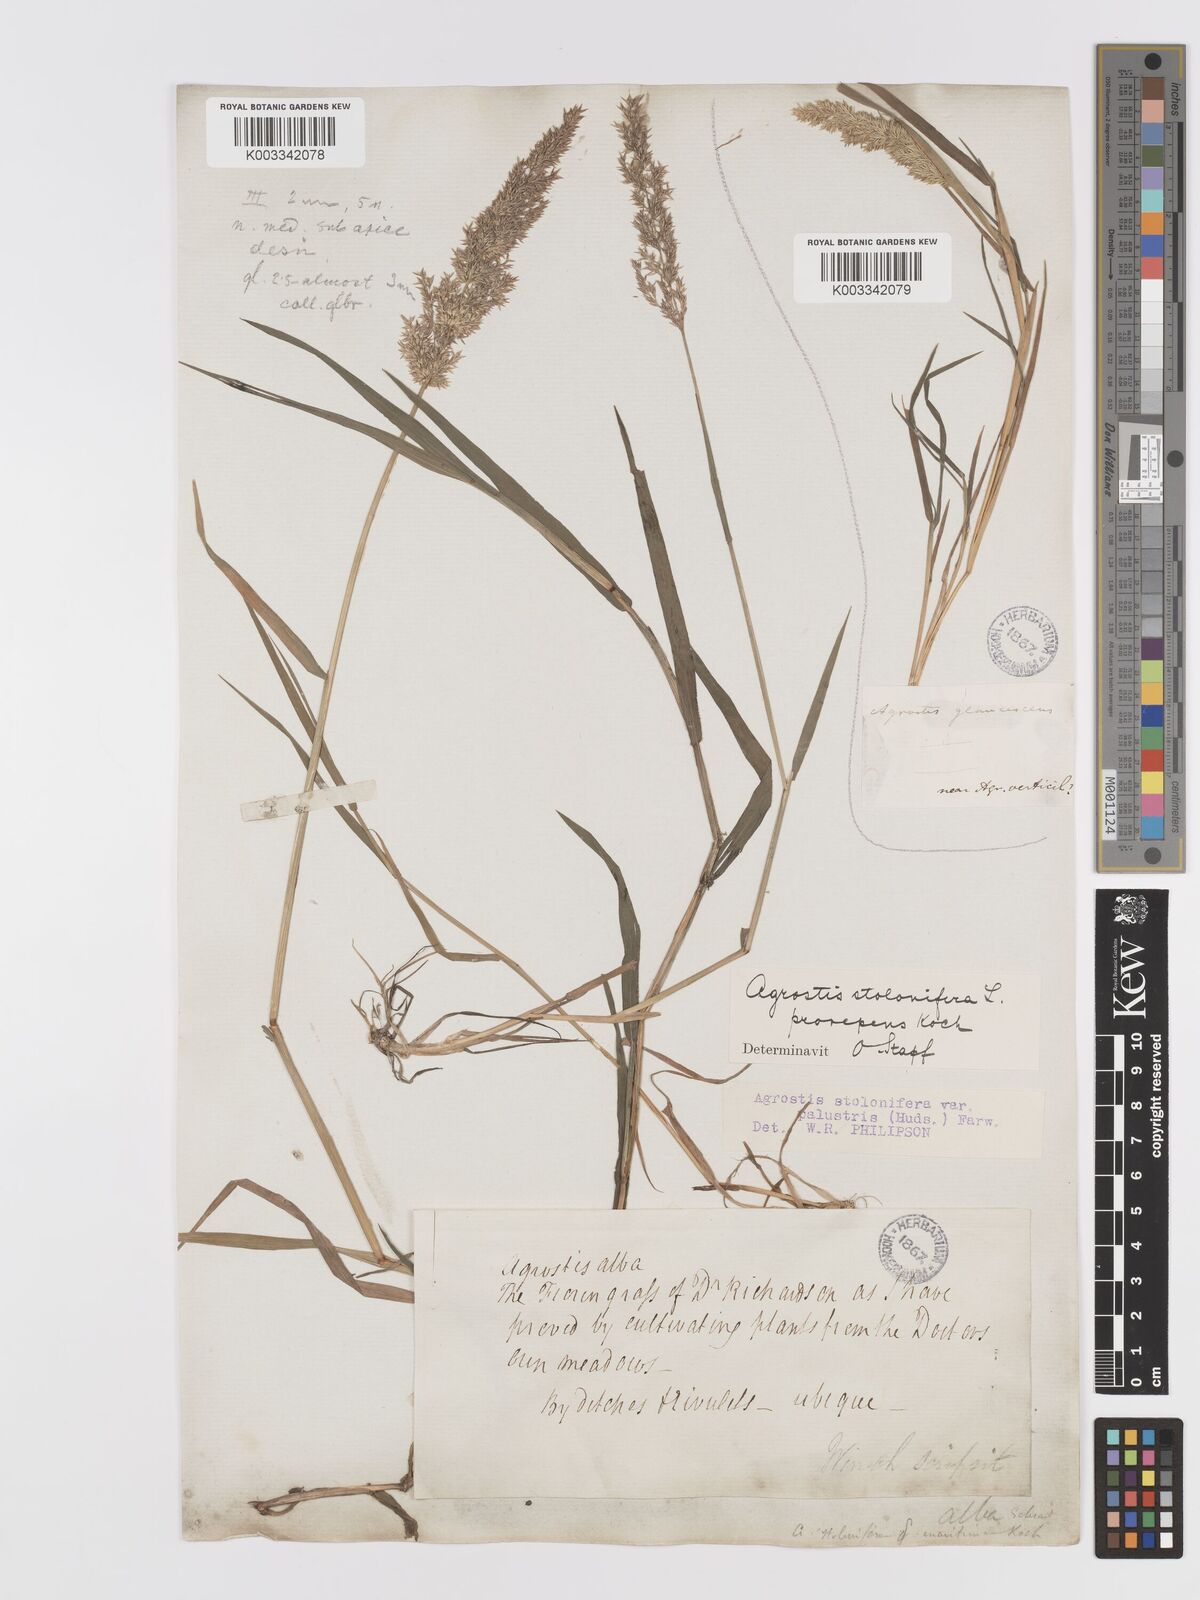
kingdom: Plantae
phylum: Tracheophyta
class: Liliopsida
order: Poales
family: Poaceae
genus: Agrostis
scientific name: Agrostis stolonifera
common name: Creeping bentgrass
